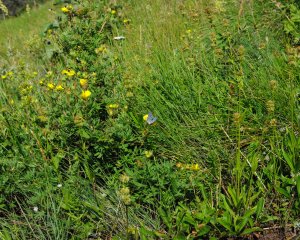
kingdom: Animalia
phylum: Arthropoda
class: Insecta
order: Lepidoptera
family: Lycaenidae
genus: Lycaena
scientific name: Lycaena heteronea
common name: Blue Copper
